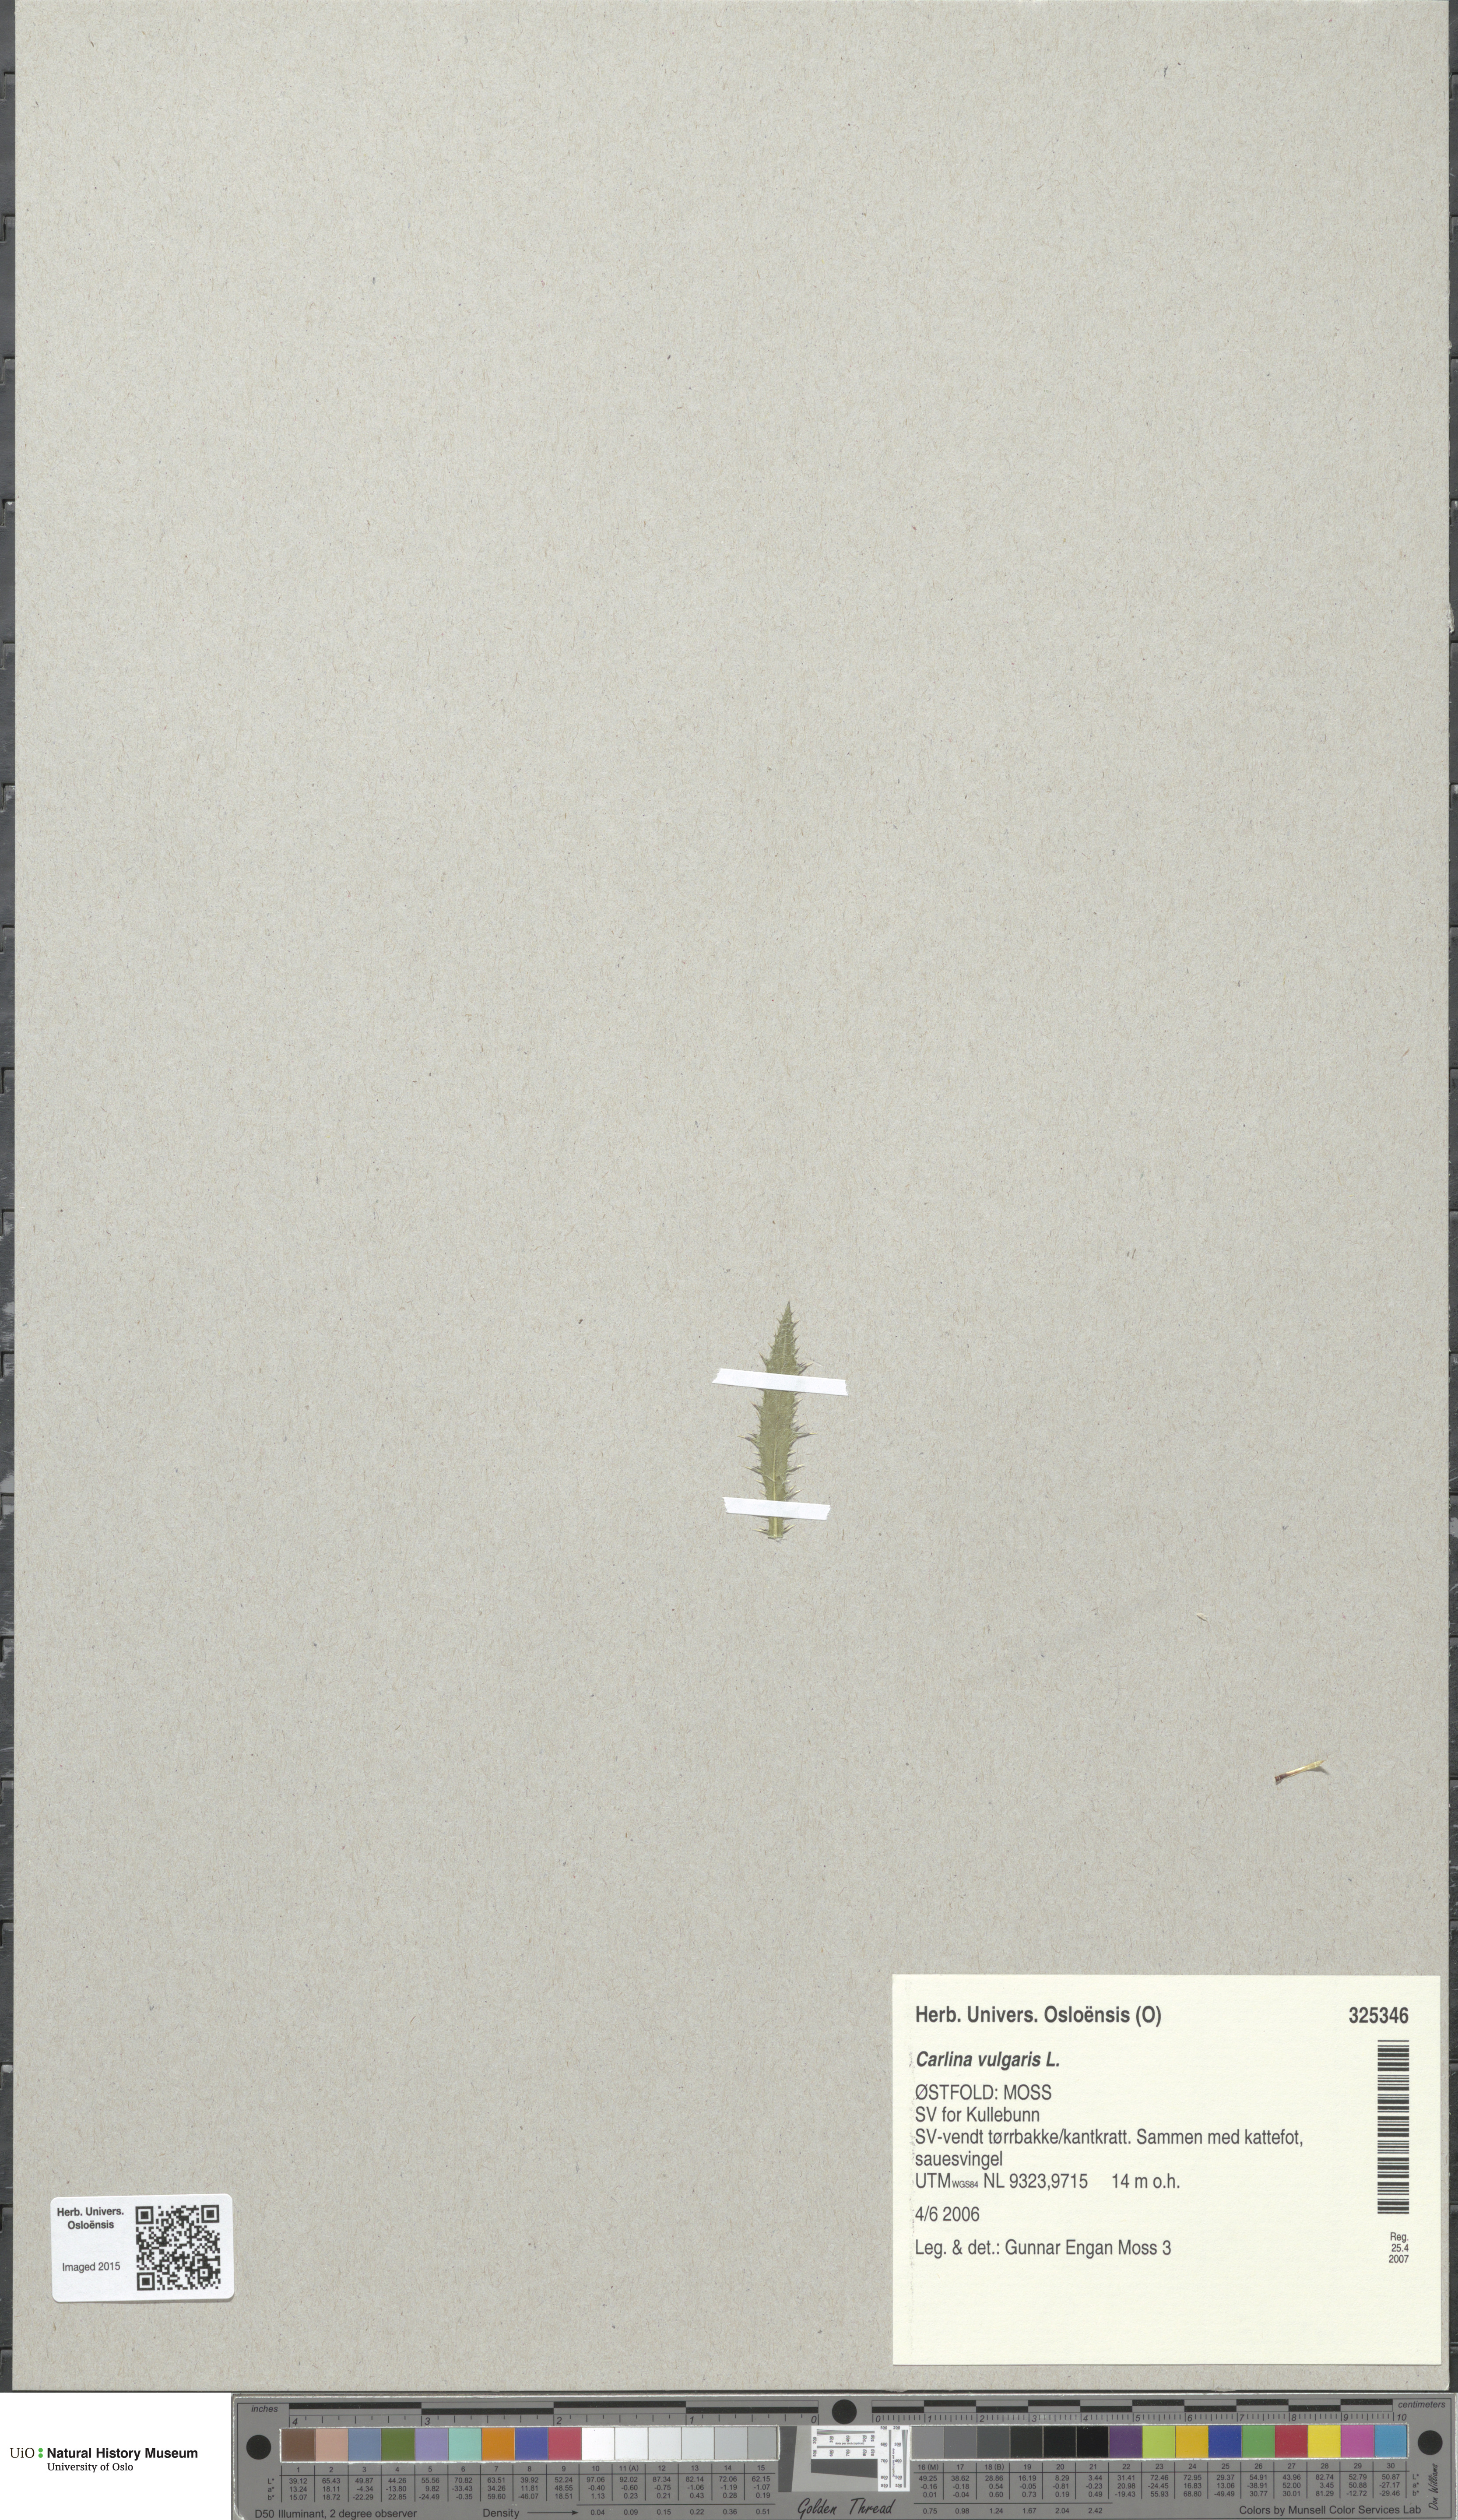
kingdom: Plantae
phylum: Tracheophyta
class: Magnoliopsida
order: Asterales
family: Asteraceae
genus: Carlina
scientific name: Carlina vulgaris
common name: Carline thistle
